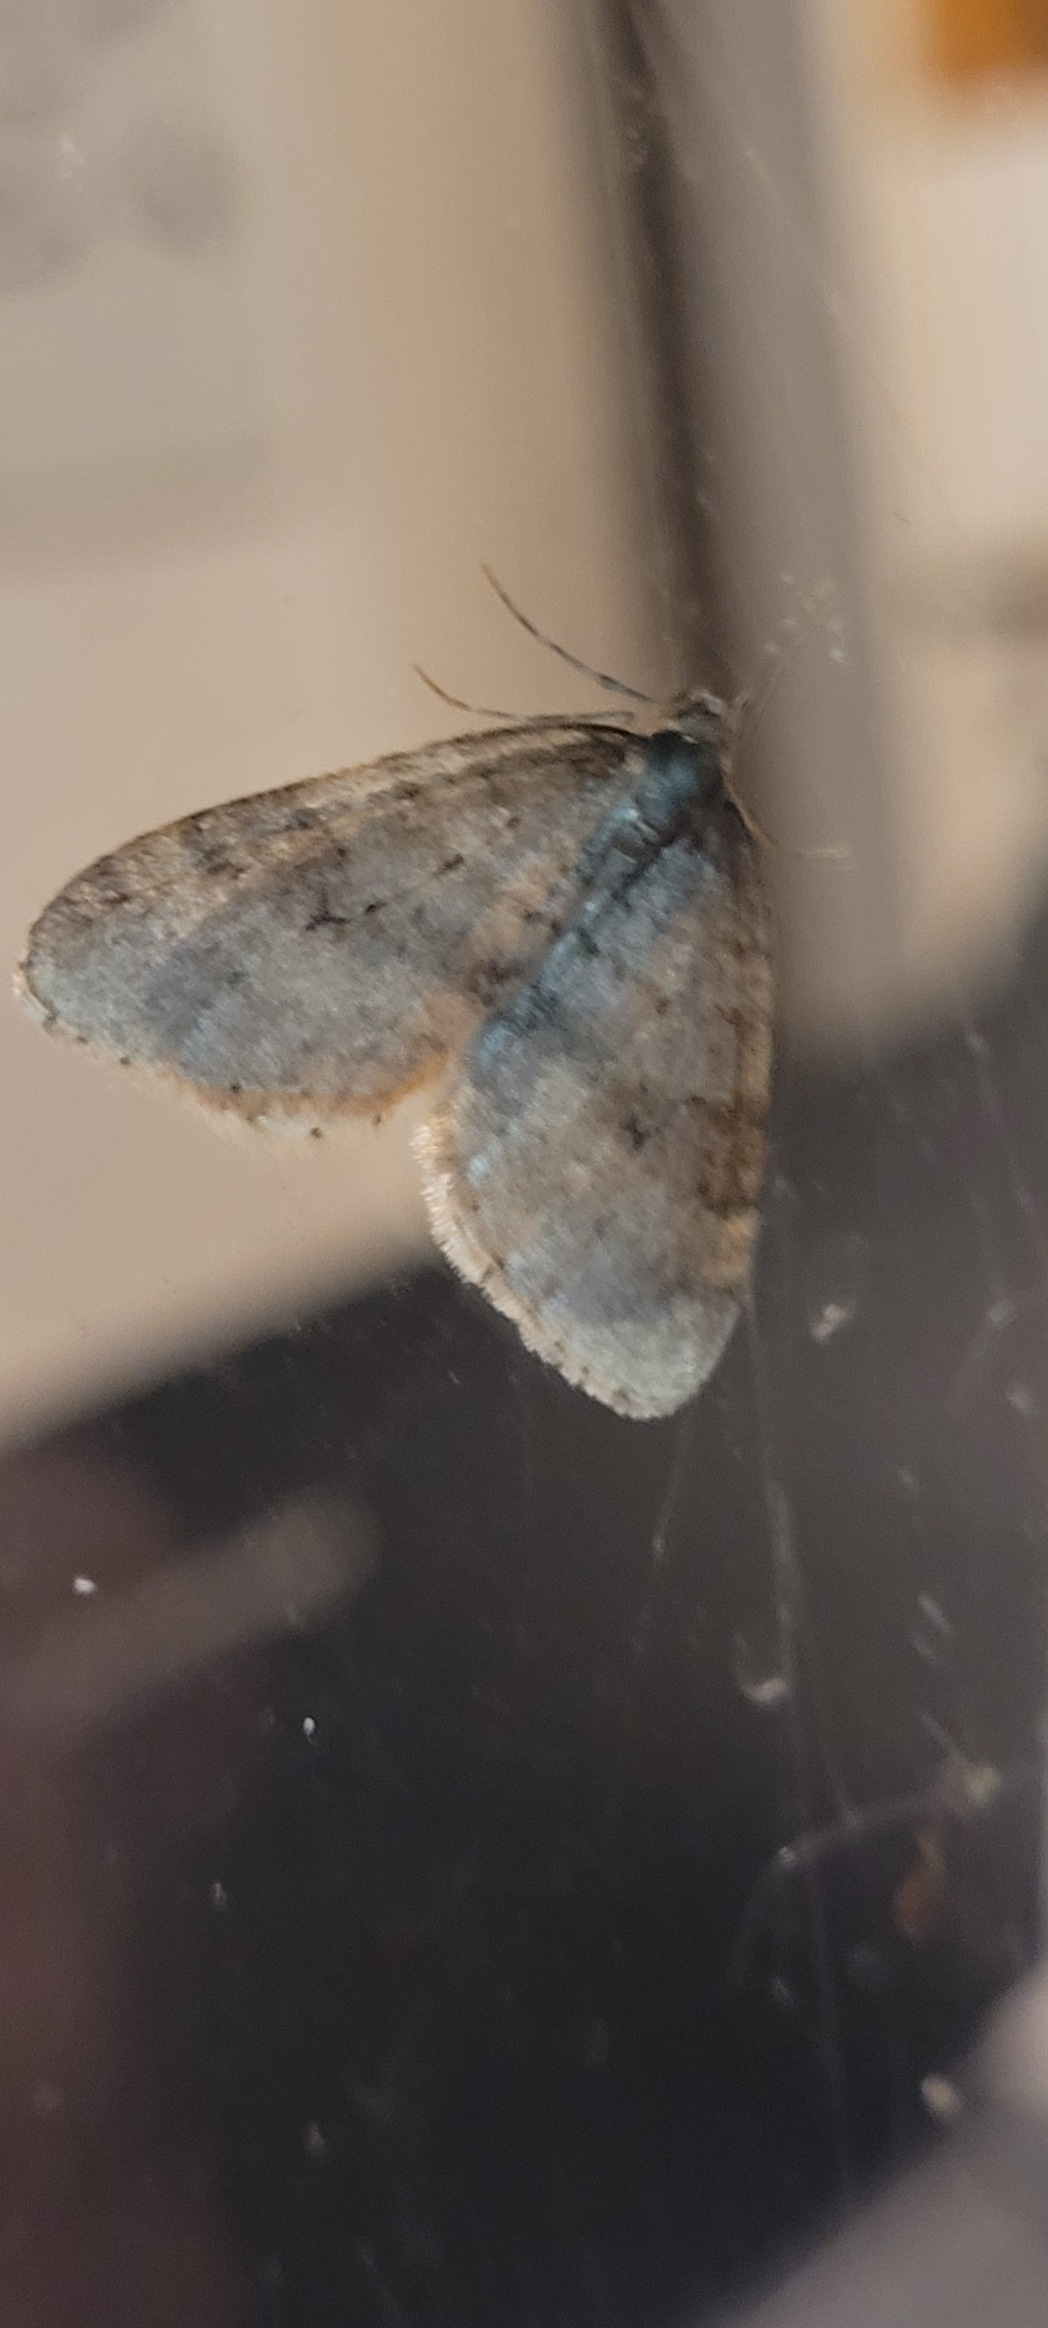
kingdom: Animalia
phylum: Arthropoda
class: Insecta
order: Lepidoptera
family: Geometridae
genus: Operophtera
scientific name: Operophtera brumata
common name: Lille frostmåler
